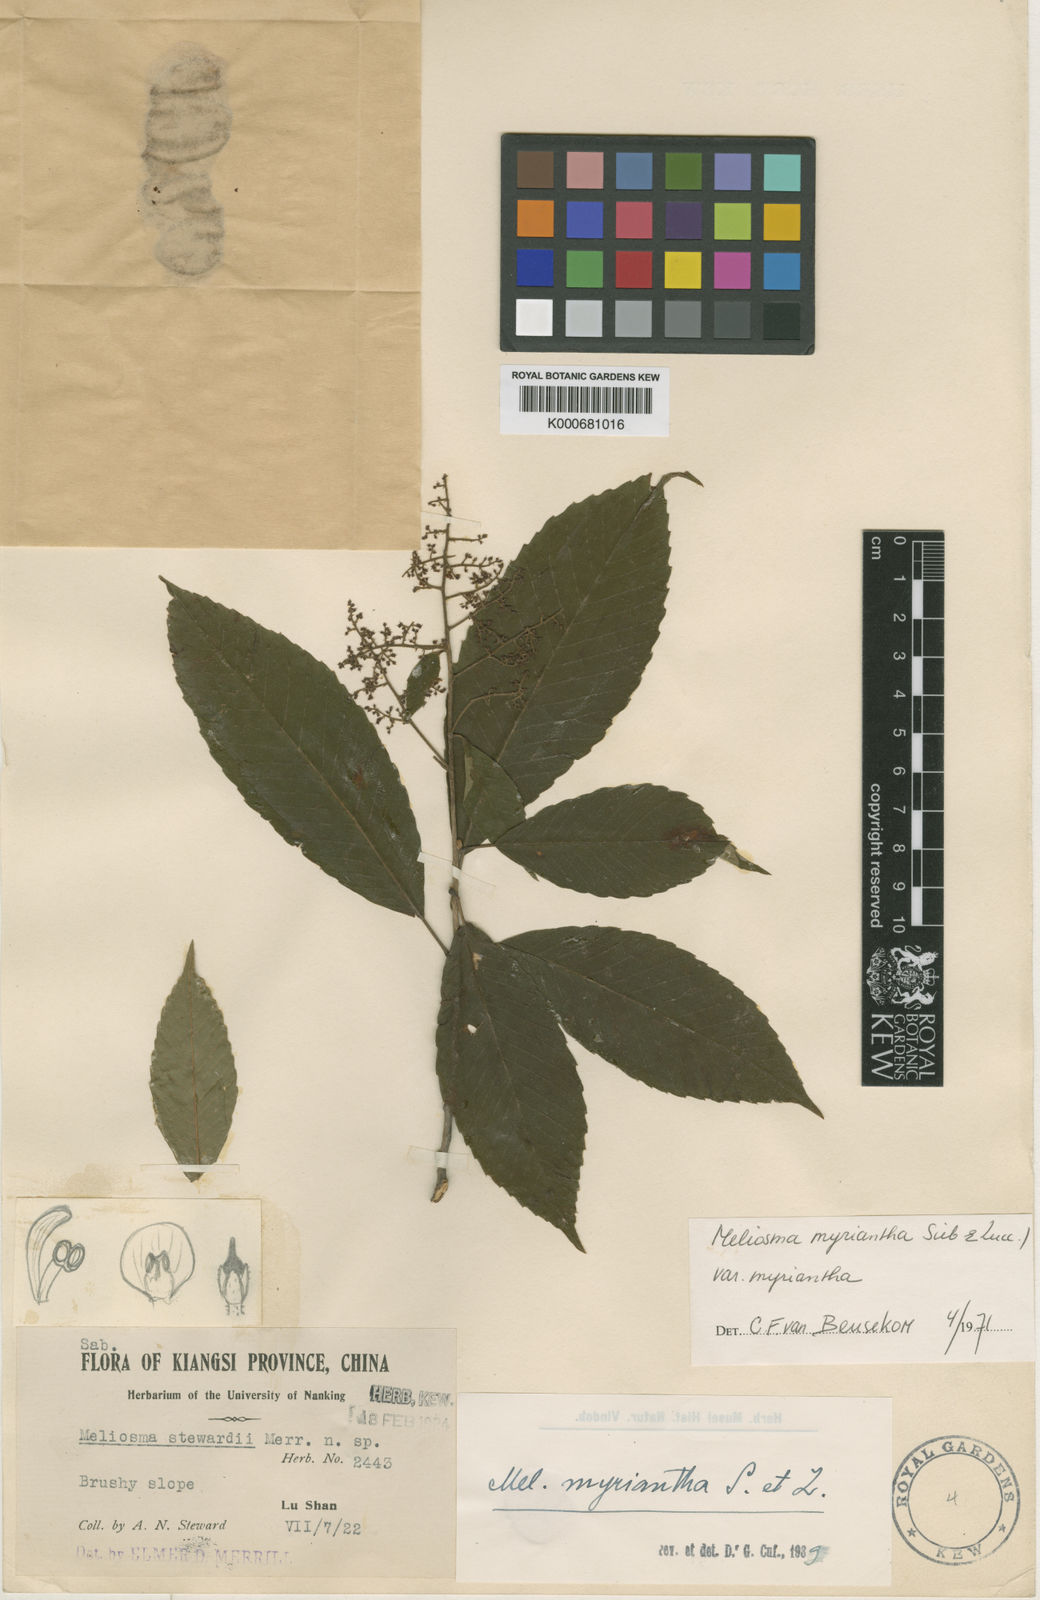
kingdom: Plantae
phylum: Tracheophyta
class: Magnoliopsida
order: Proteales
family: Sabiaceae
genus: Meliosma
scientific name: Meliosma myriantha
